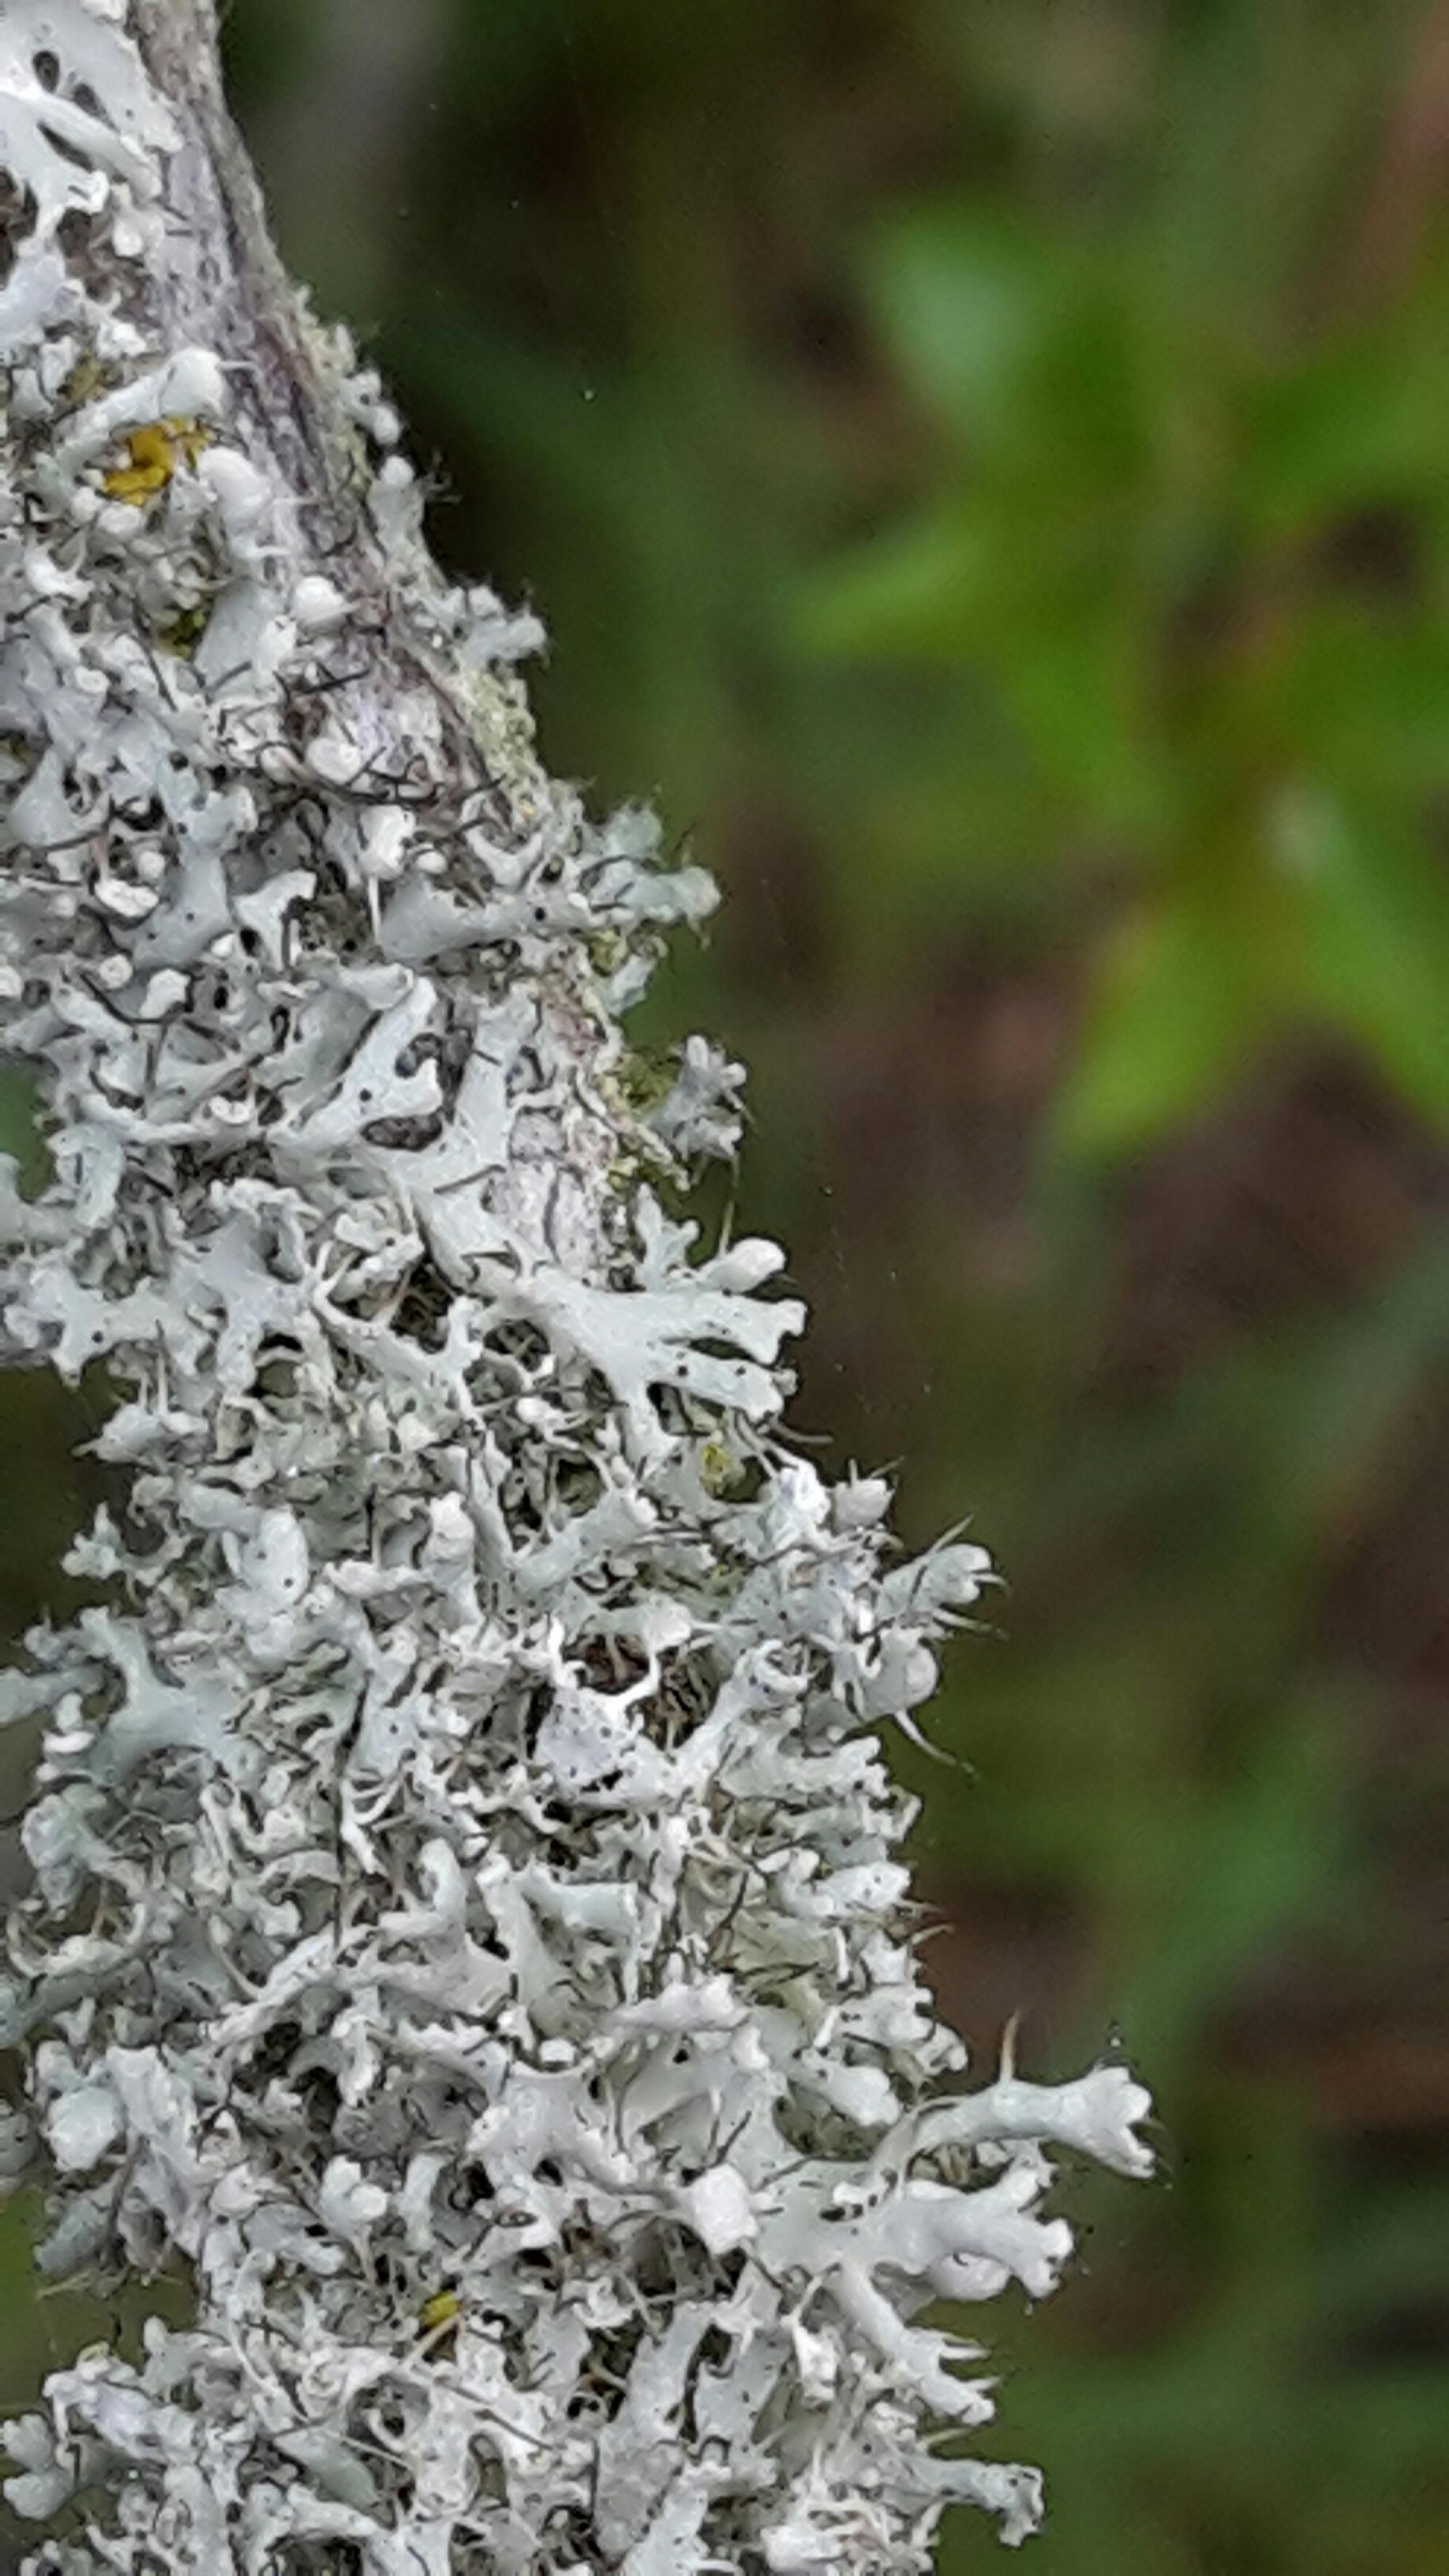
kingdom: Fungi
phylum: Ascomycota
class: Lecanoromycetes
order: Caliciales
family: Physciaceae
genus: Physcia
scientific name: Physcia adscendens
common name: hætte-rosetlav
